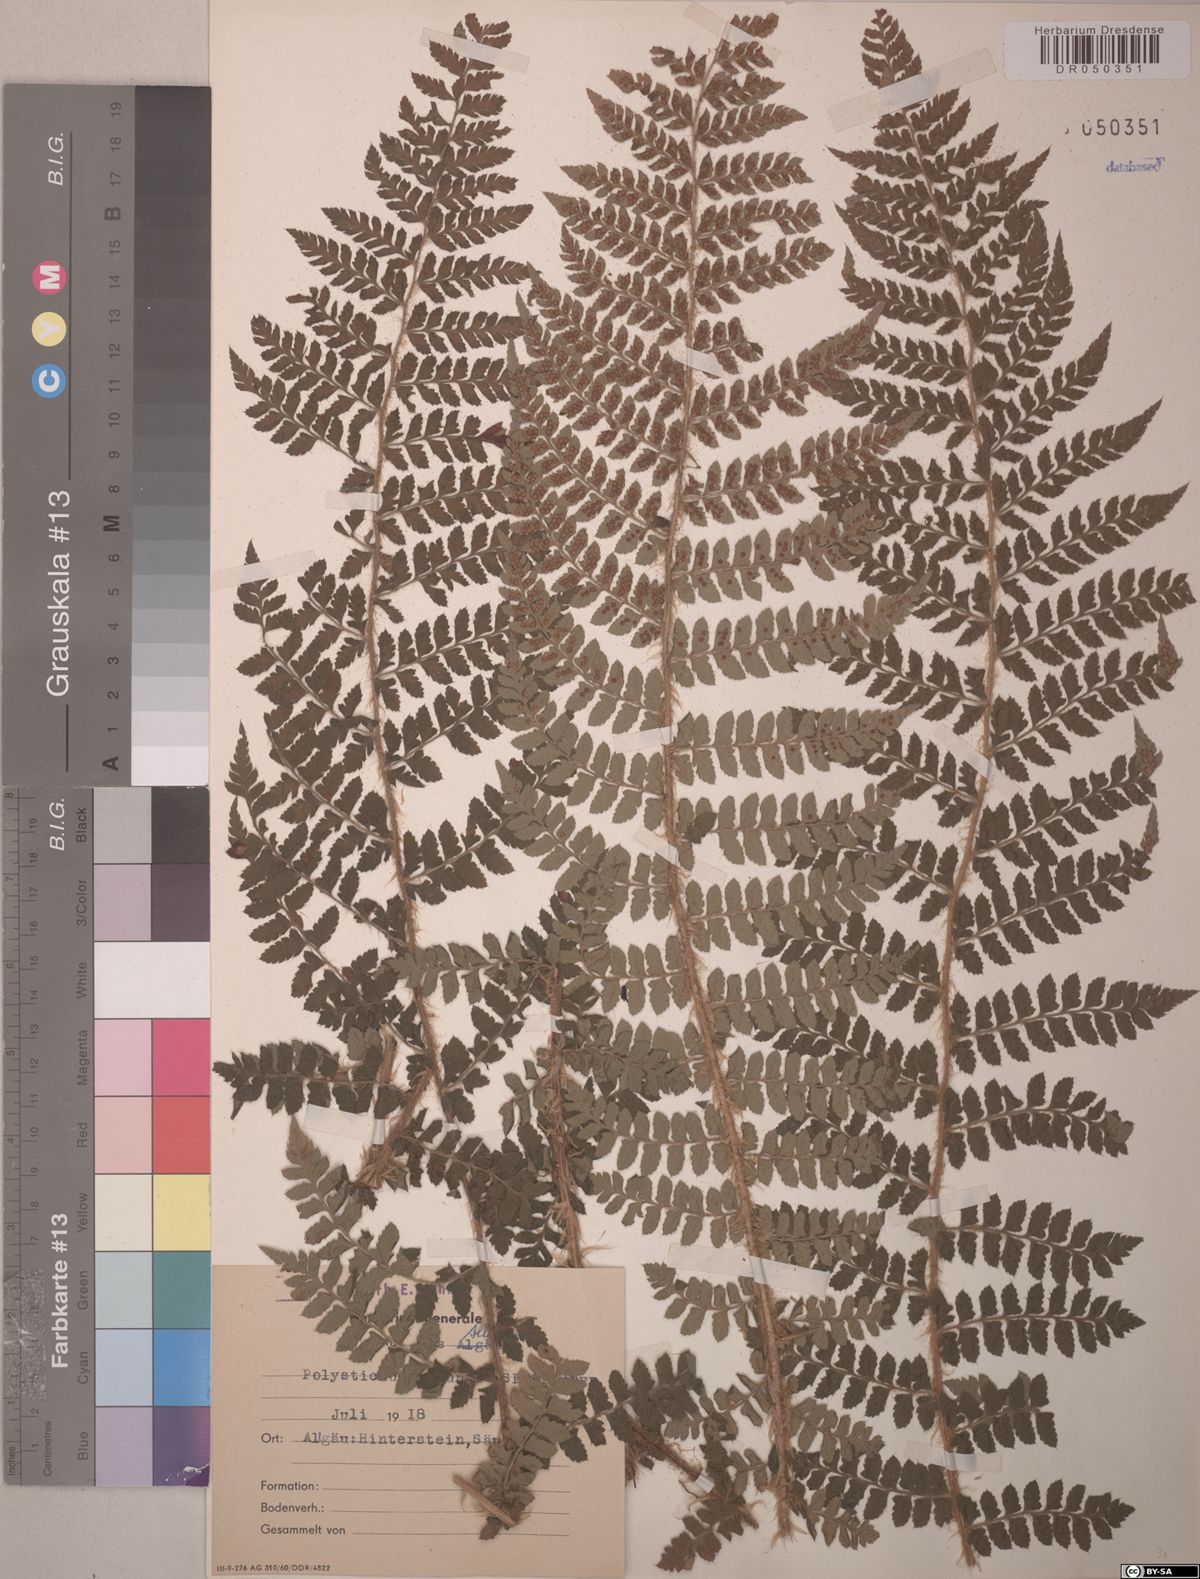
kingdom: Plantae
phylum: Tracheophyta
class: Polypodiopsida
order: Polypodiales
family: Dryopteridaceae
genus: Polystichum
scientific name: Polystichum braunii
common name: Braun's holly fern
